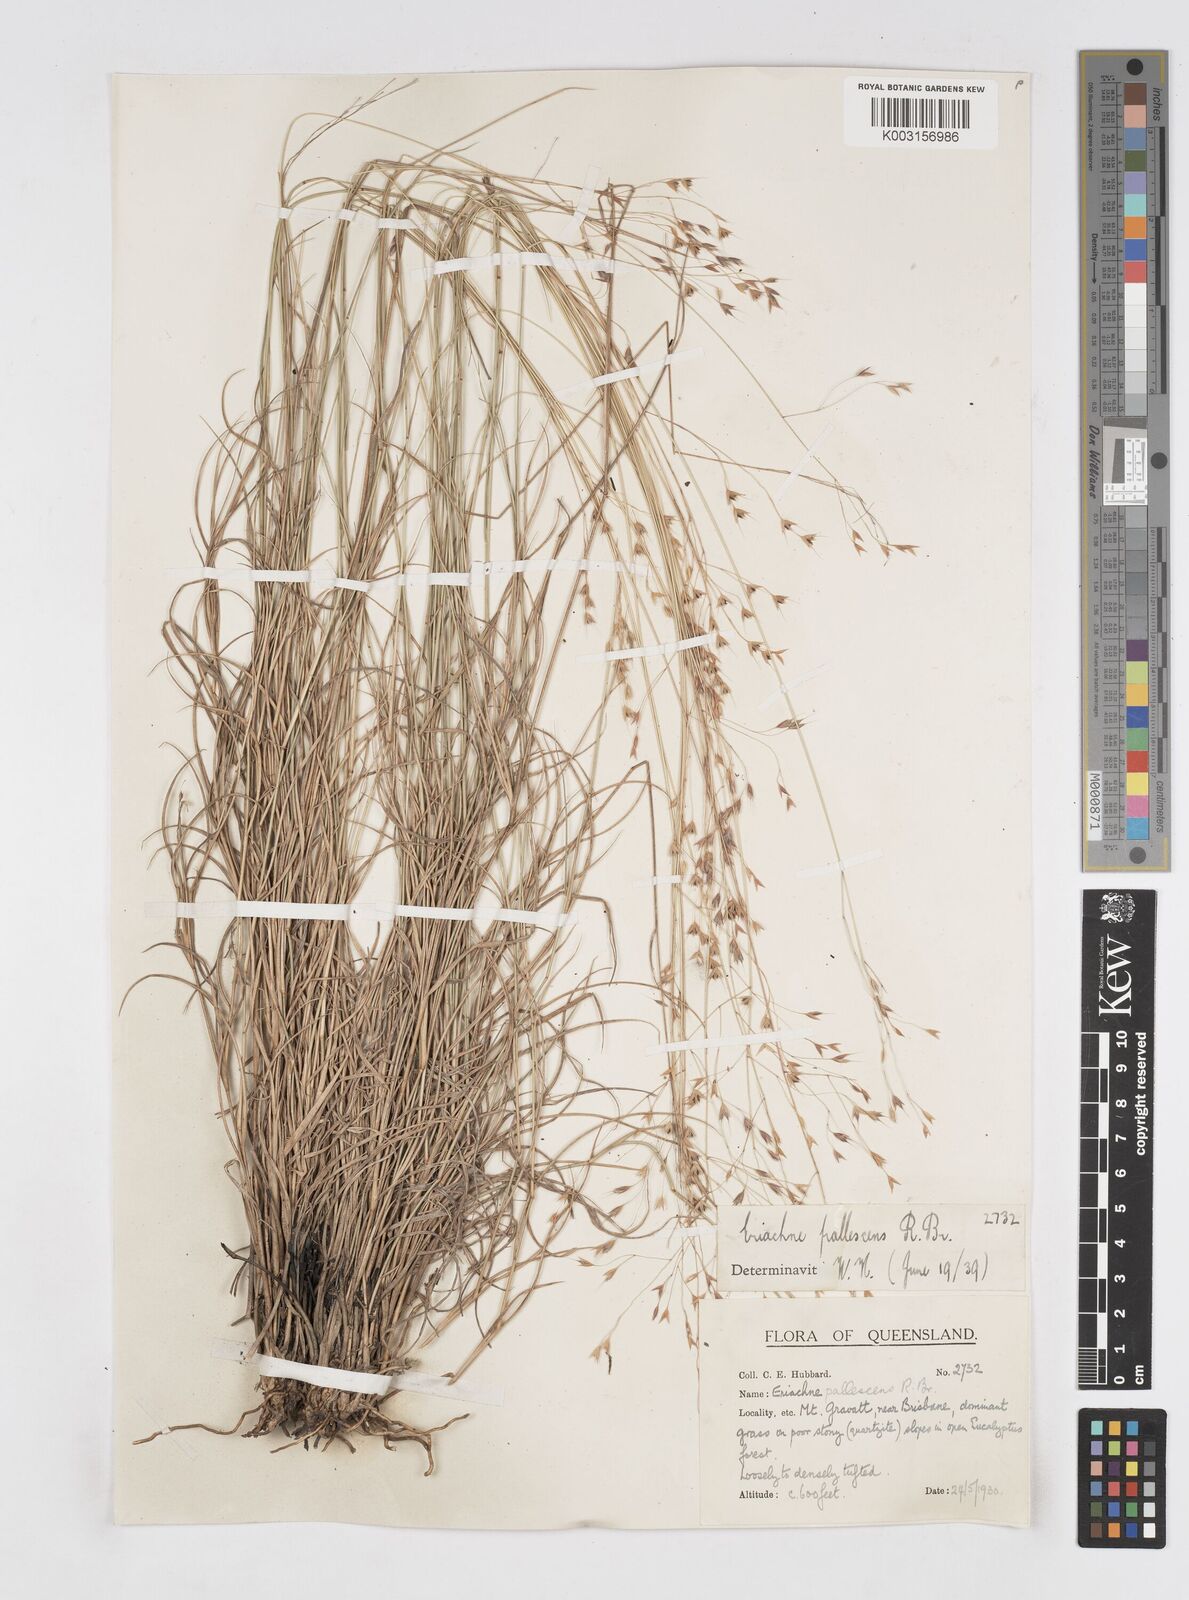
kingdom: Plantae
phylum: Tracheophyta
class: Liliopsida
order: Poales
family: Poaceae
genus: Eriachne
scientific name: Eriachne pallescens
